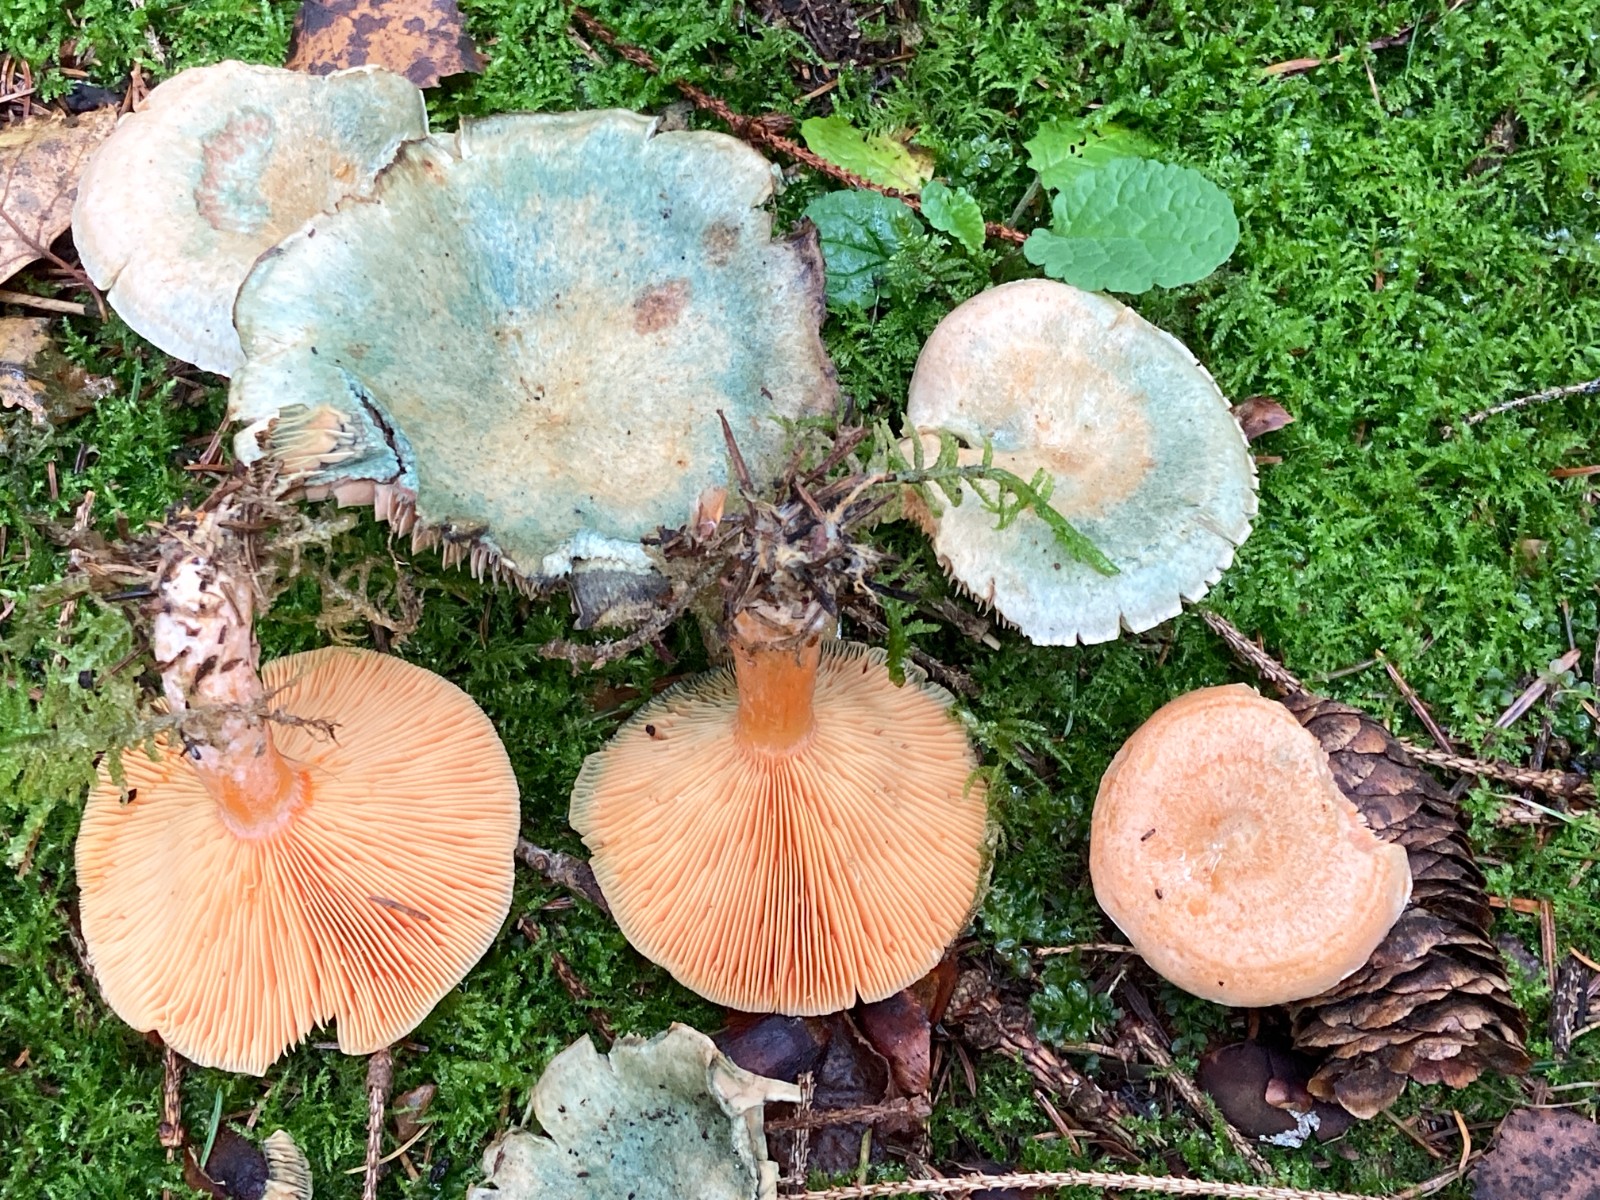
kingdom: Fungi
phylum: Basidiomycota
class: Agaricomycetes
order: Russulales
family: Russulaceae
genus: Lactarius
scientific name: Lactarius deterrimus
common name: gran-mælkehat
